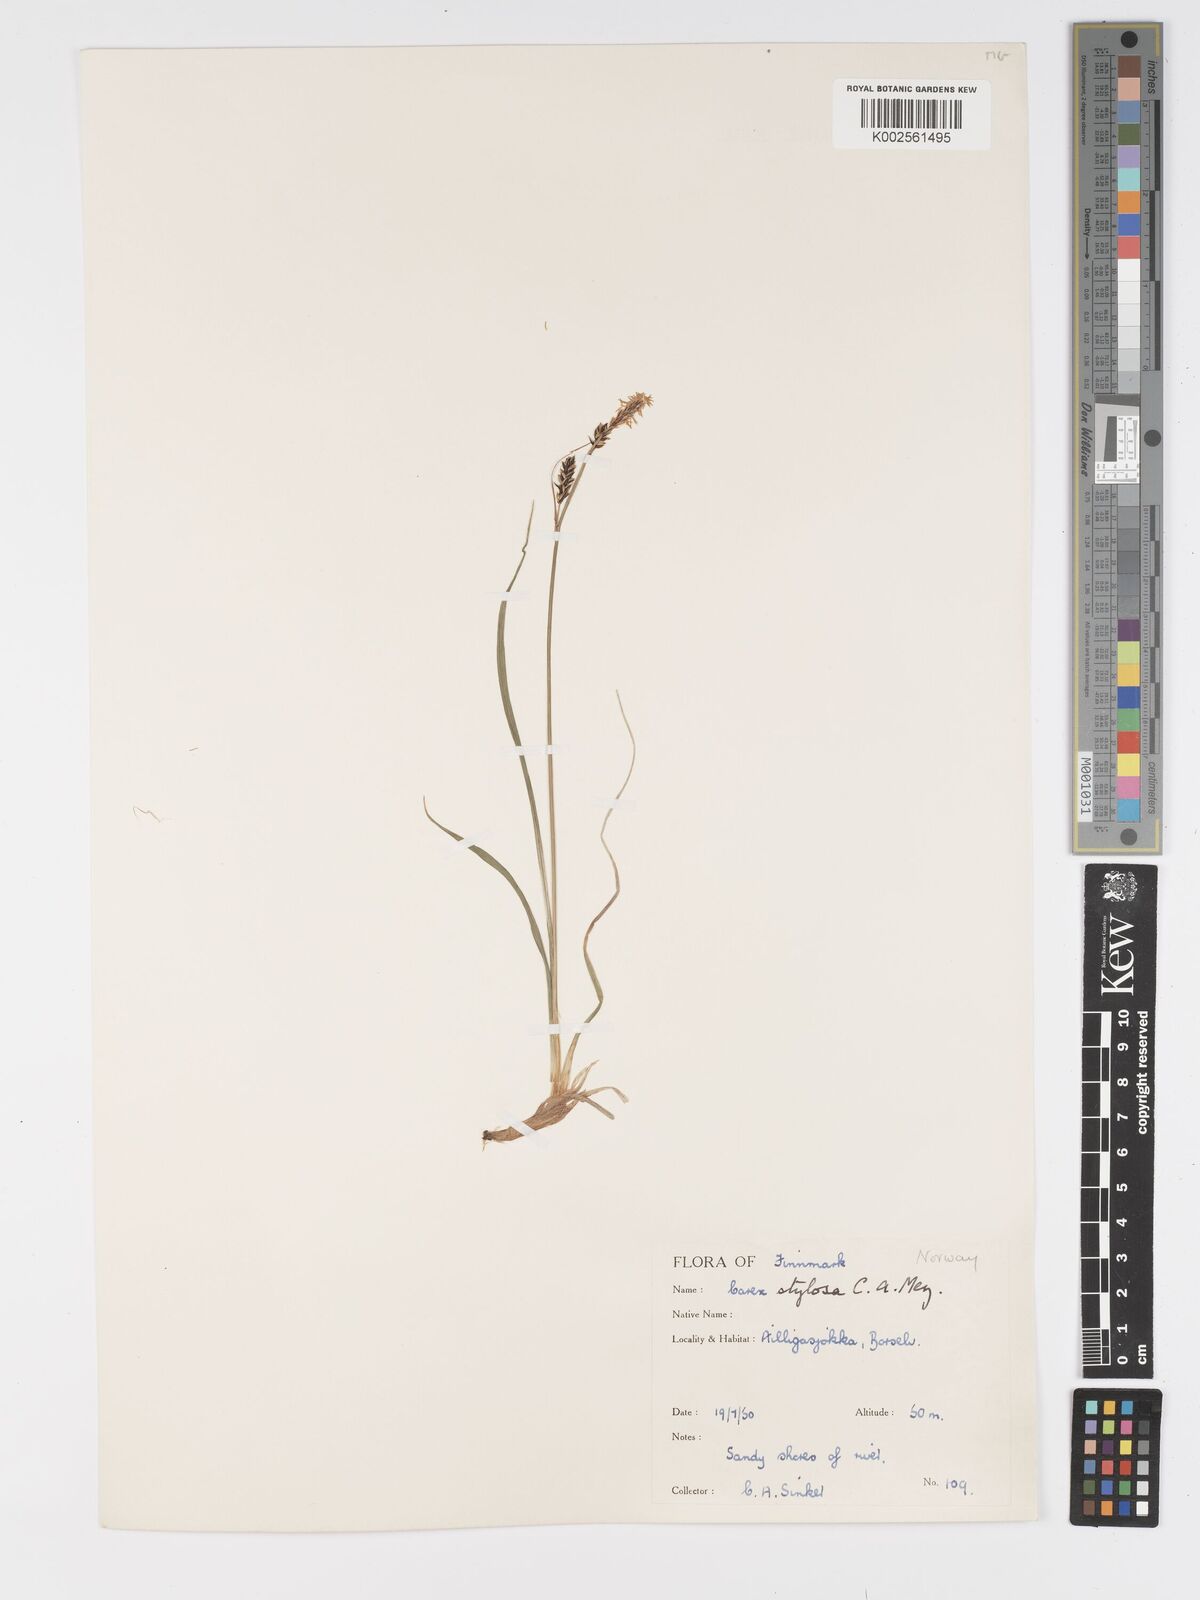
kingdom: Plantae
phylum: Tracheophyta
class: Liliopsida
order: Poales
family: Cyperaceae
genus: Carex
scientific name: Carex stylosa
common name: Long-styled sedge
